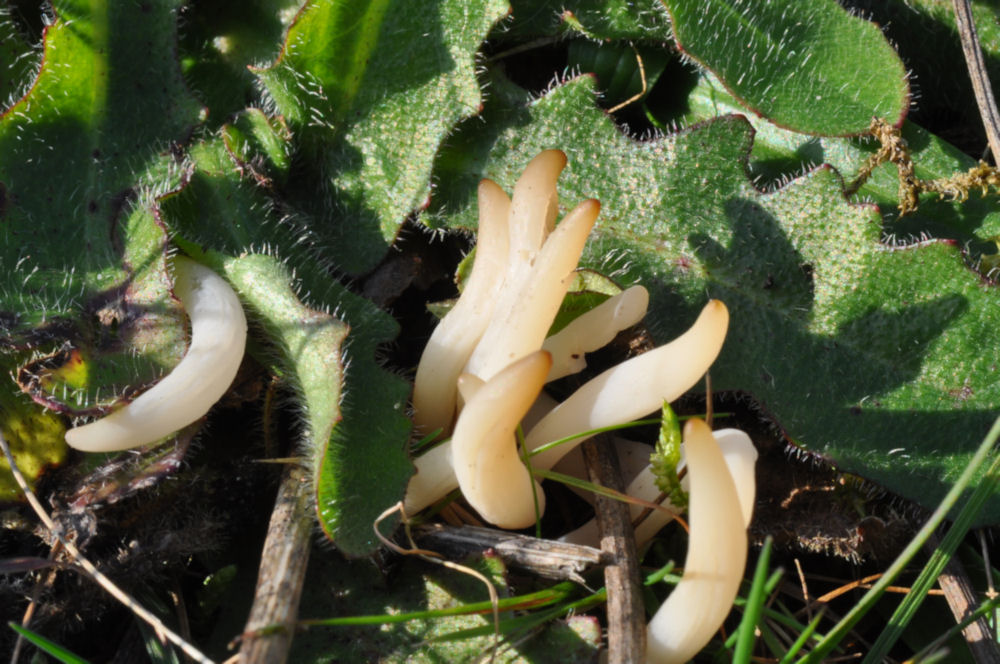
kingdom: Fungi
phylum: Basidiomycota
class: Agaricomycetes
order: Agaricales
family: Clavariaceae
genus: Clavaria
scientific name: Clavaria falcata
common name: hvid køllesvamp
